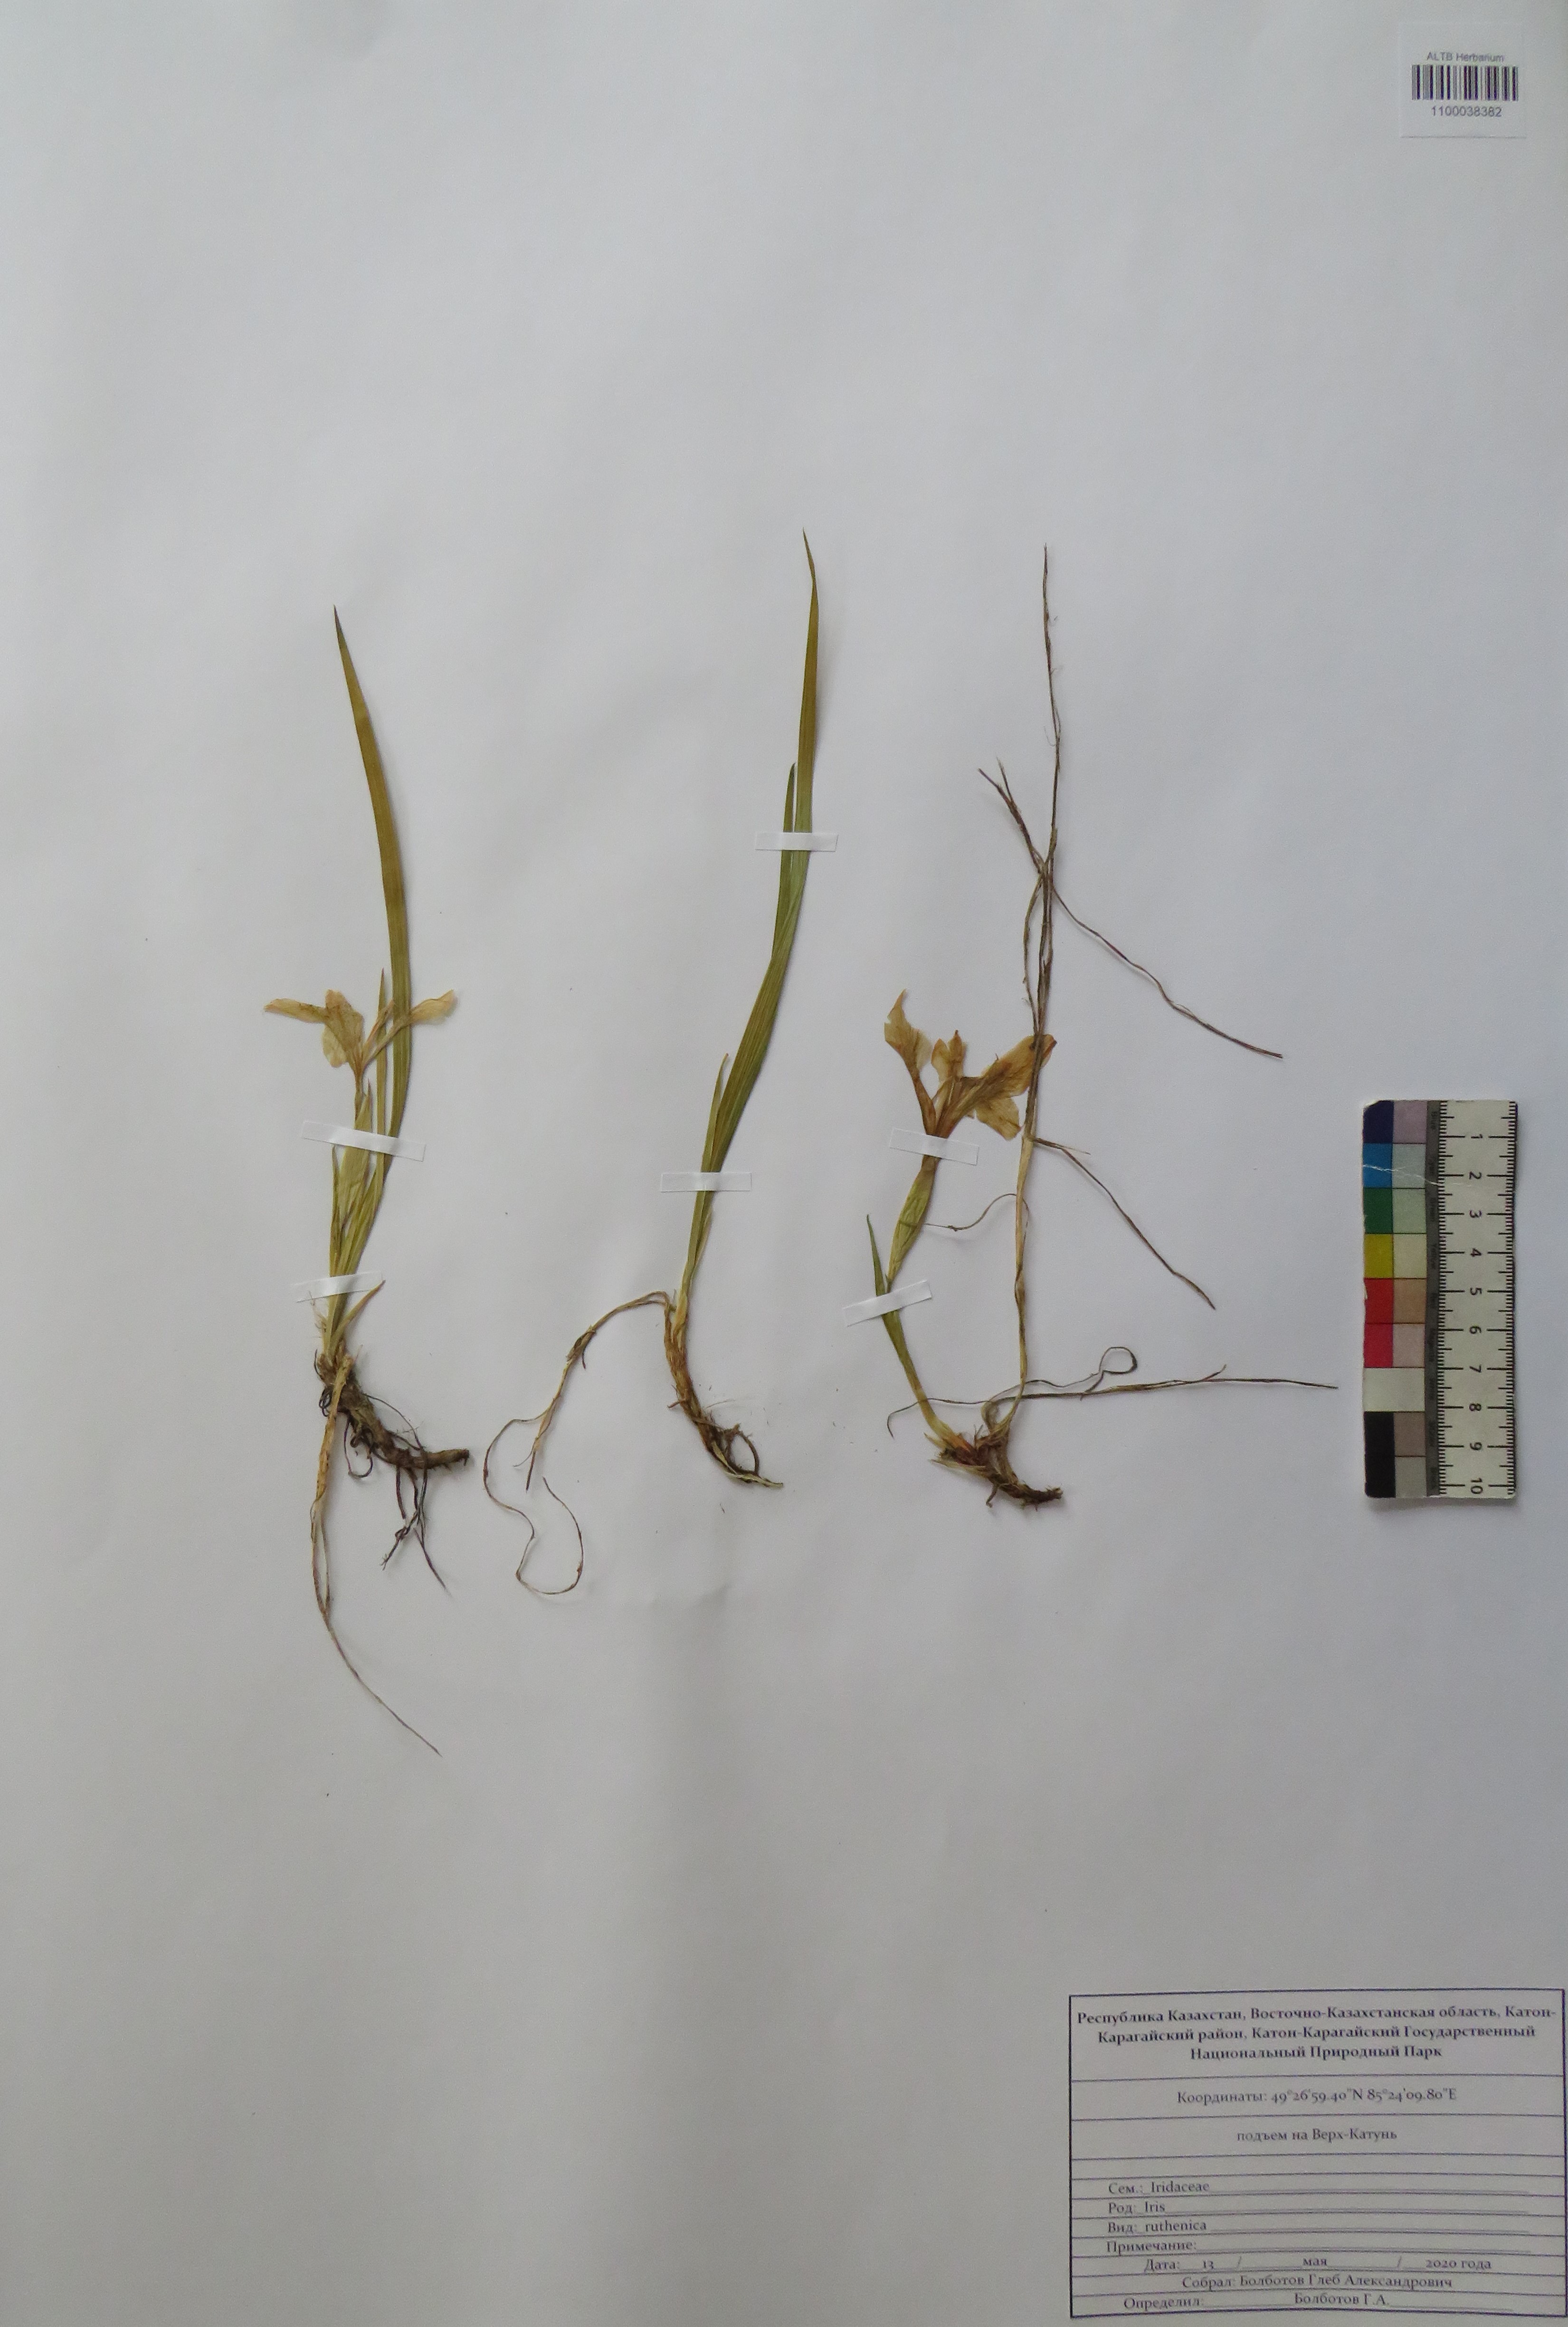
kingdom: Plantae
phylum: Tracheophyta
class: Liliopsida
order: Asparagales
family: Iridaceae
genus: Iris
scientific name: Iris ruthenica
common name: Purple-bract iris
